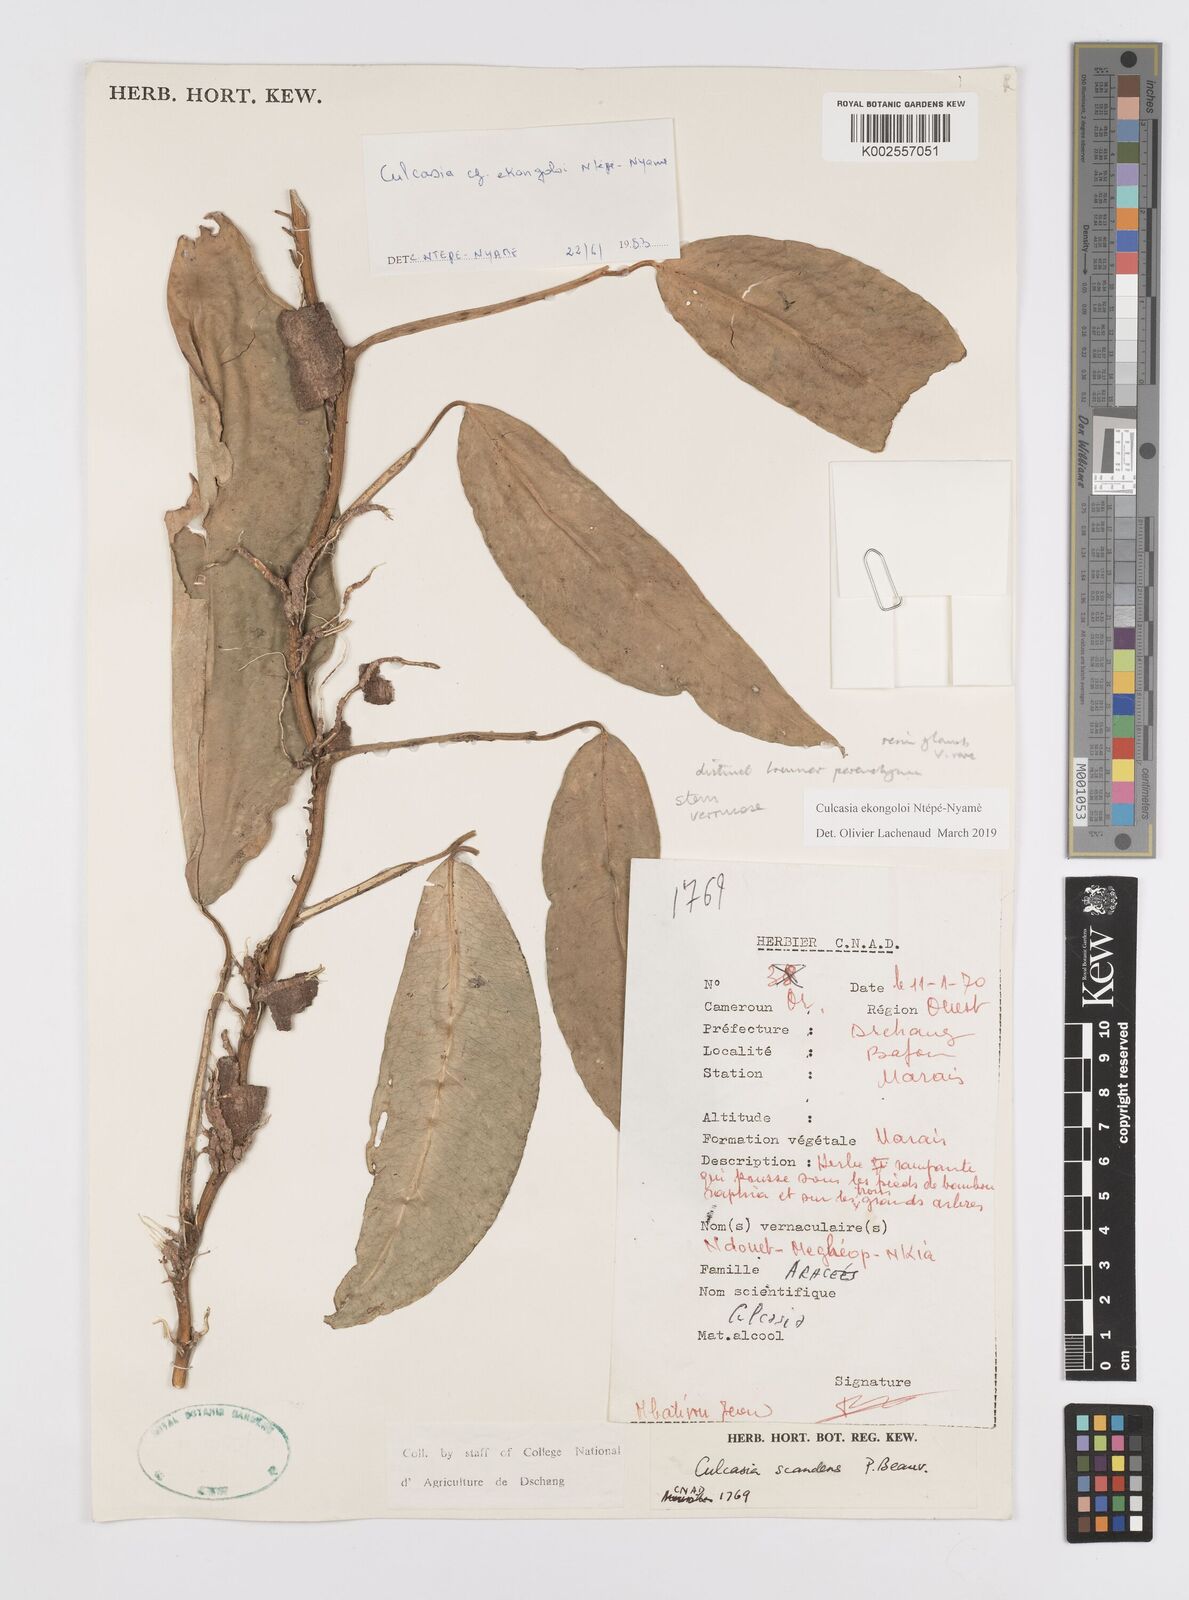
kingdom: Plantae
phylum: Tracheophyta
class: Liliopsida
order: Alismatales
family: Araceae
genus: Culcasia
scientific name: Culcasia ekongoloi
